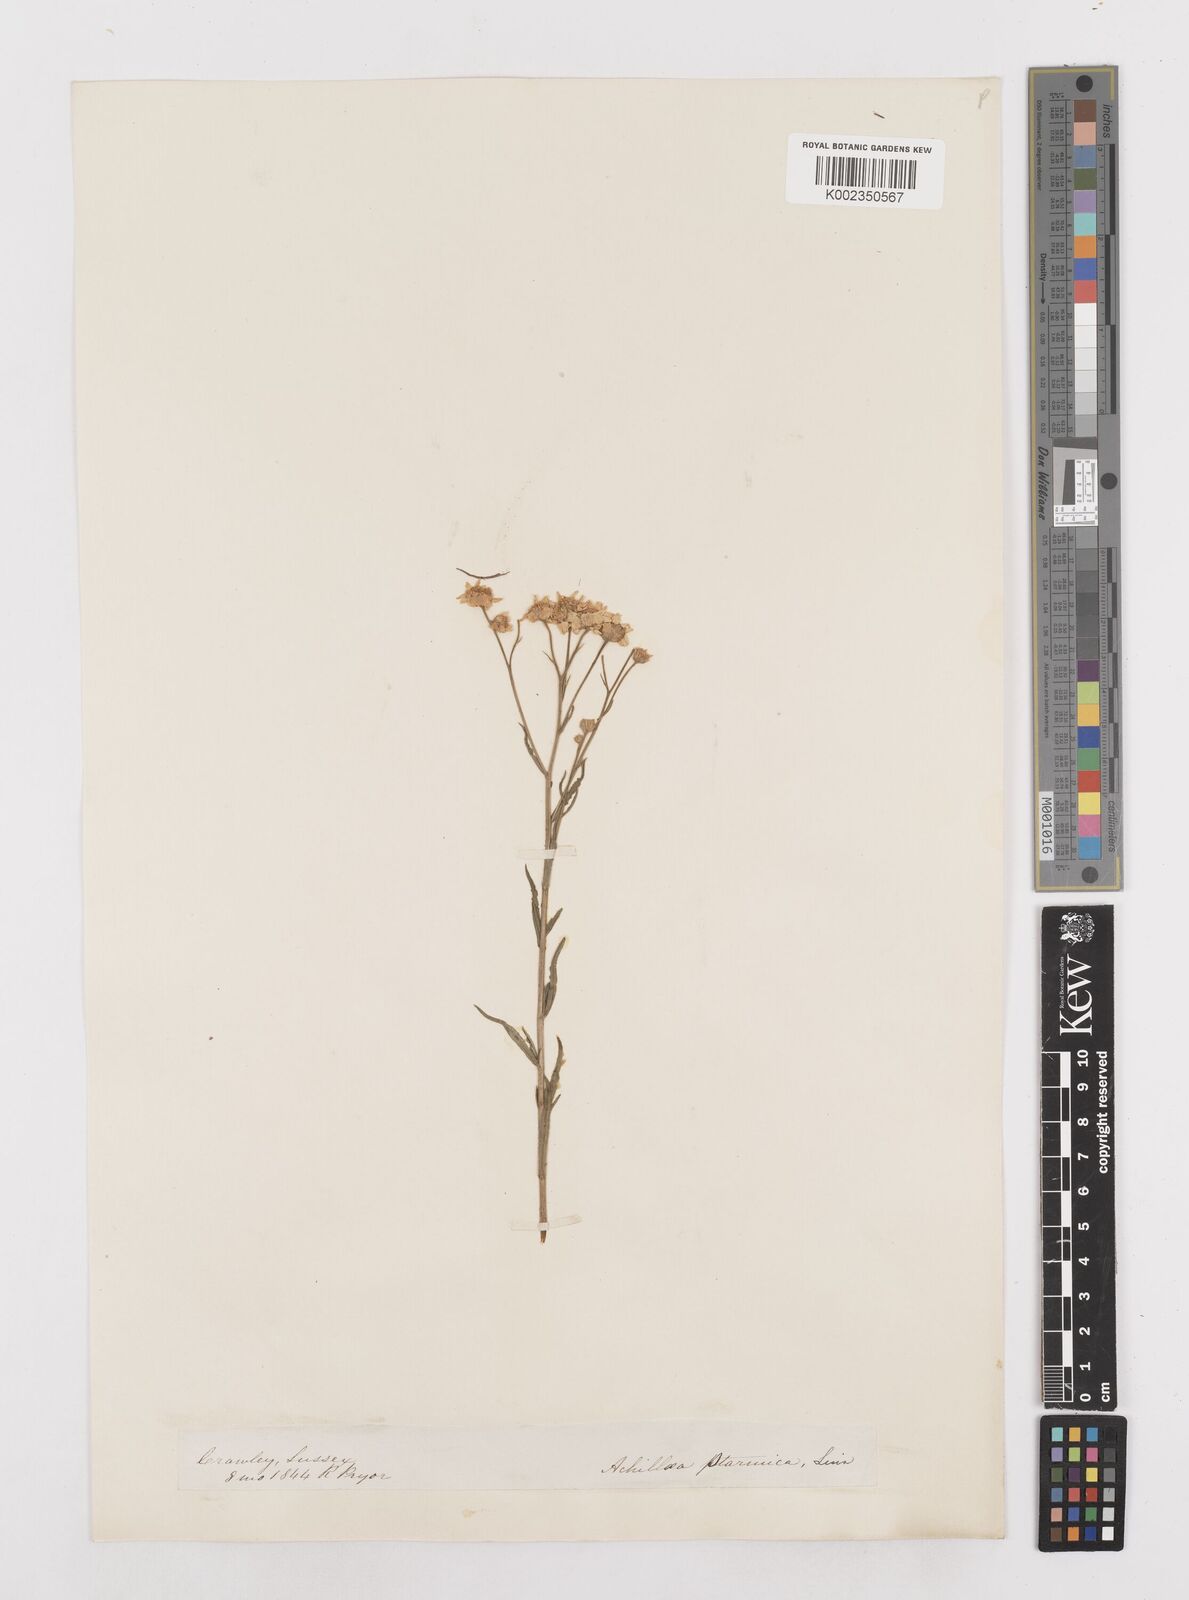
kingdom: Plantae
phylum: Tracheophyta
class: Magnoliopsida
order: Asterales
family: Asteraceae
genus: Achillea
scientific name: Achillea ptarmica
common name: Sneezeweed
